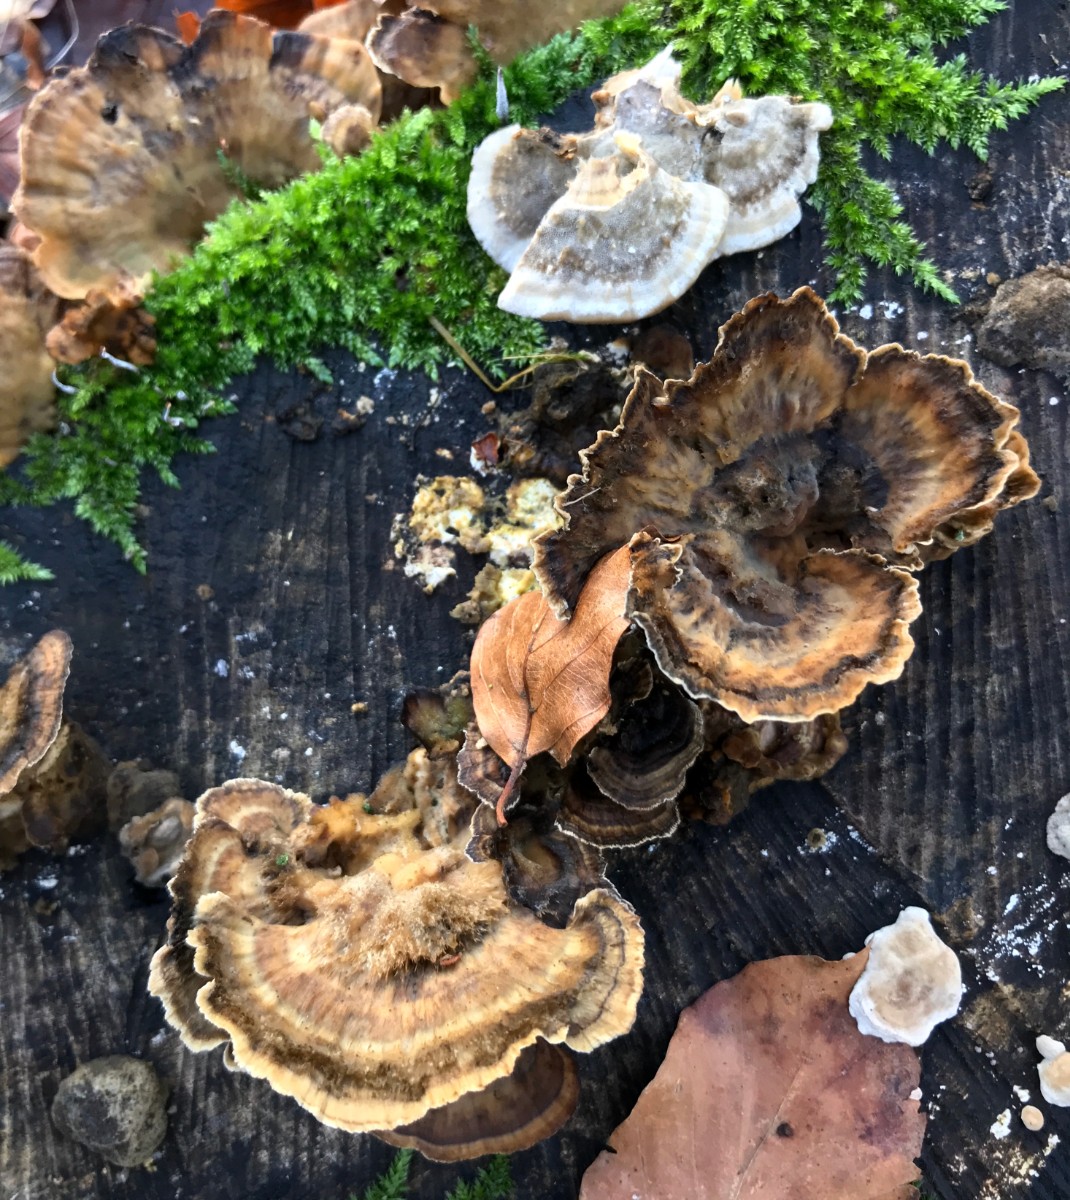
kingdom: Fungi
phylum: Basidiomycota
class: Agaricomycetes
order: Polyporales
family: Phanerochaetaceae
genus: Bjerkandera
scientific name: Bjerkandera adusta
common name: sveden sodporesvamp
